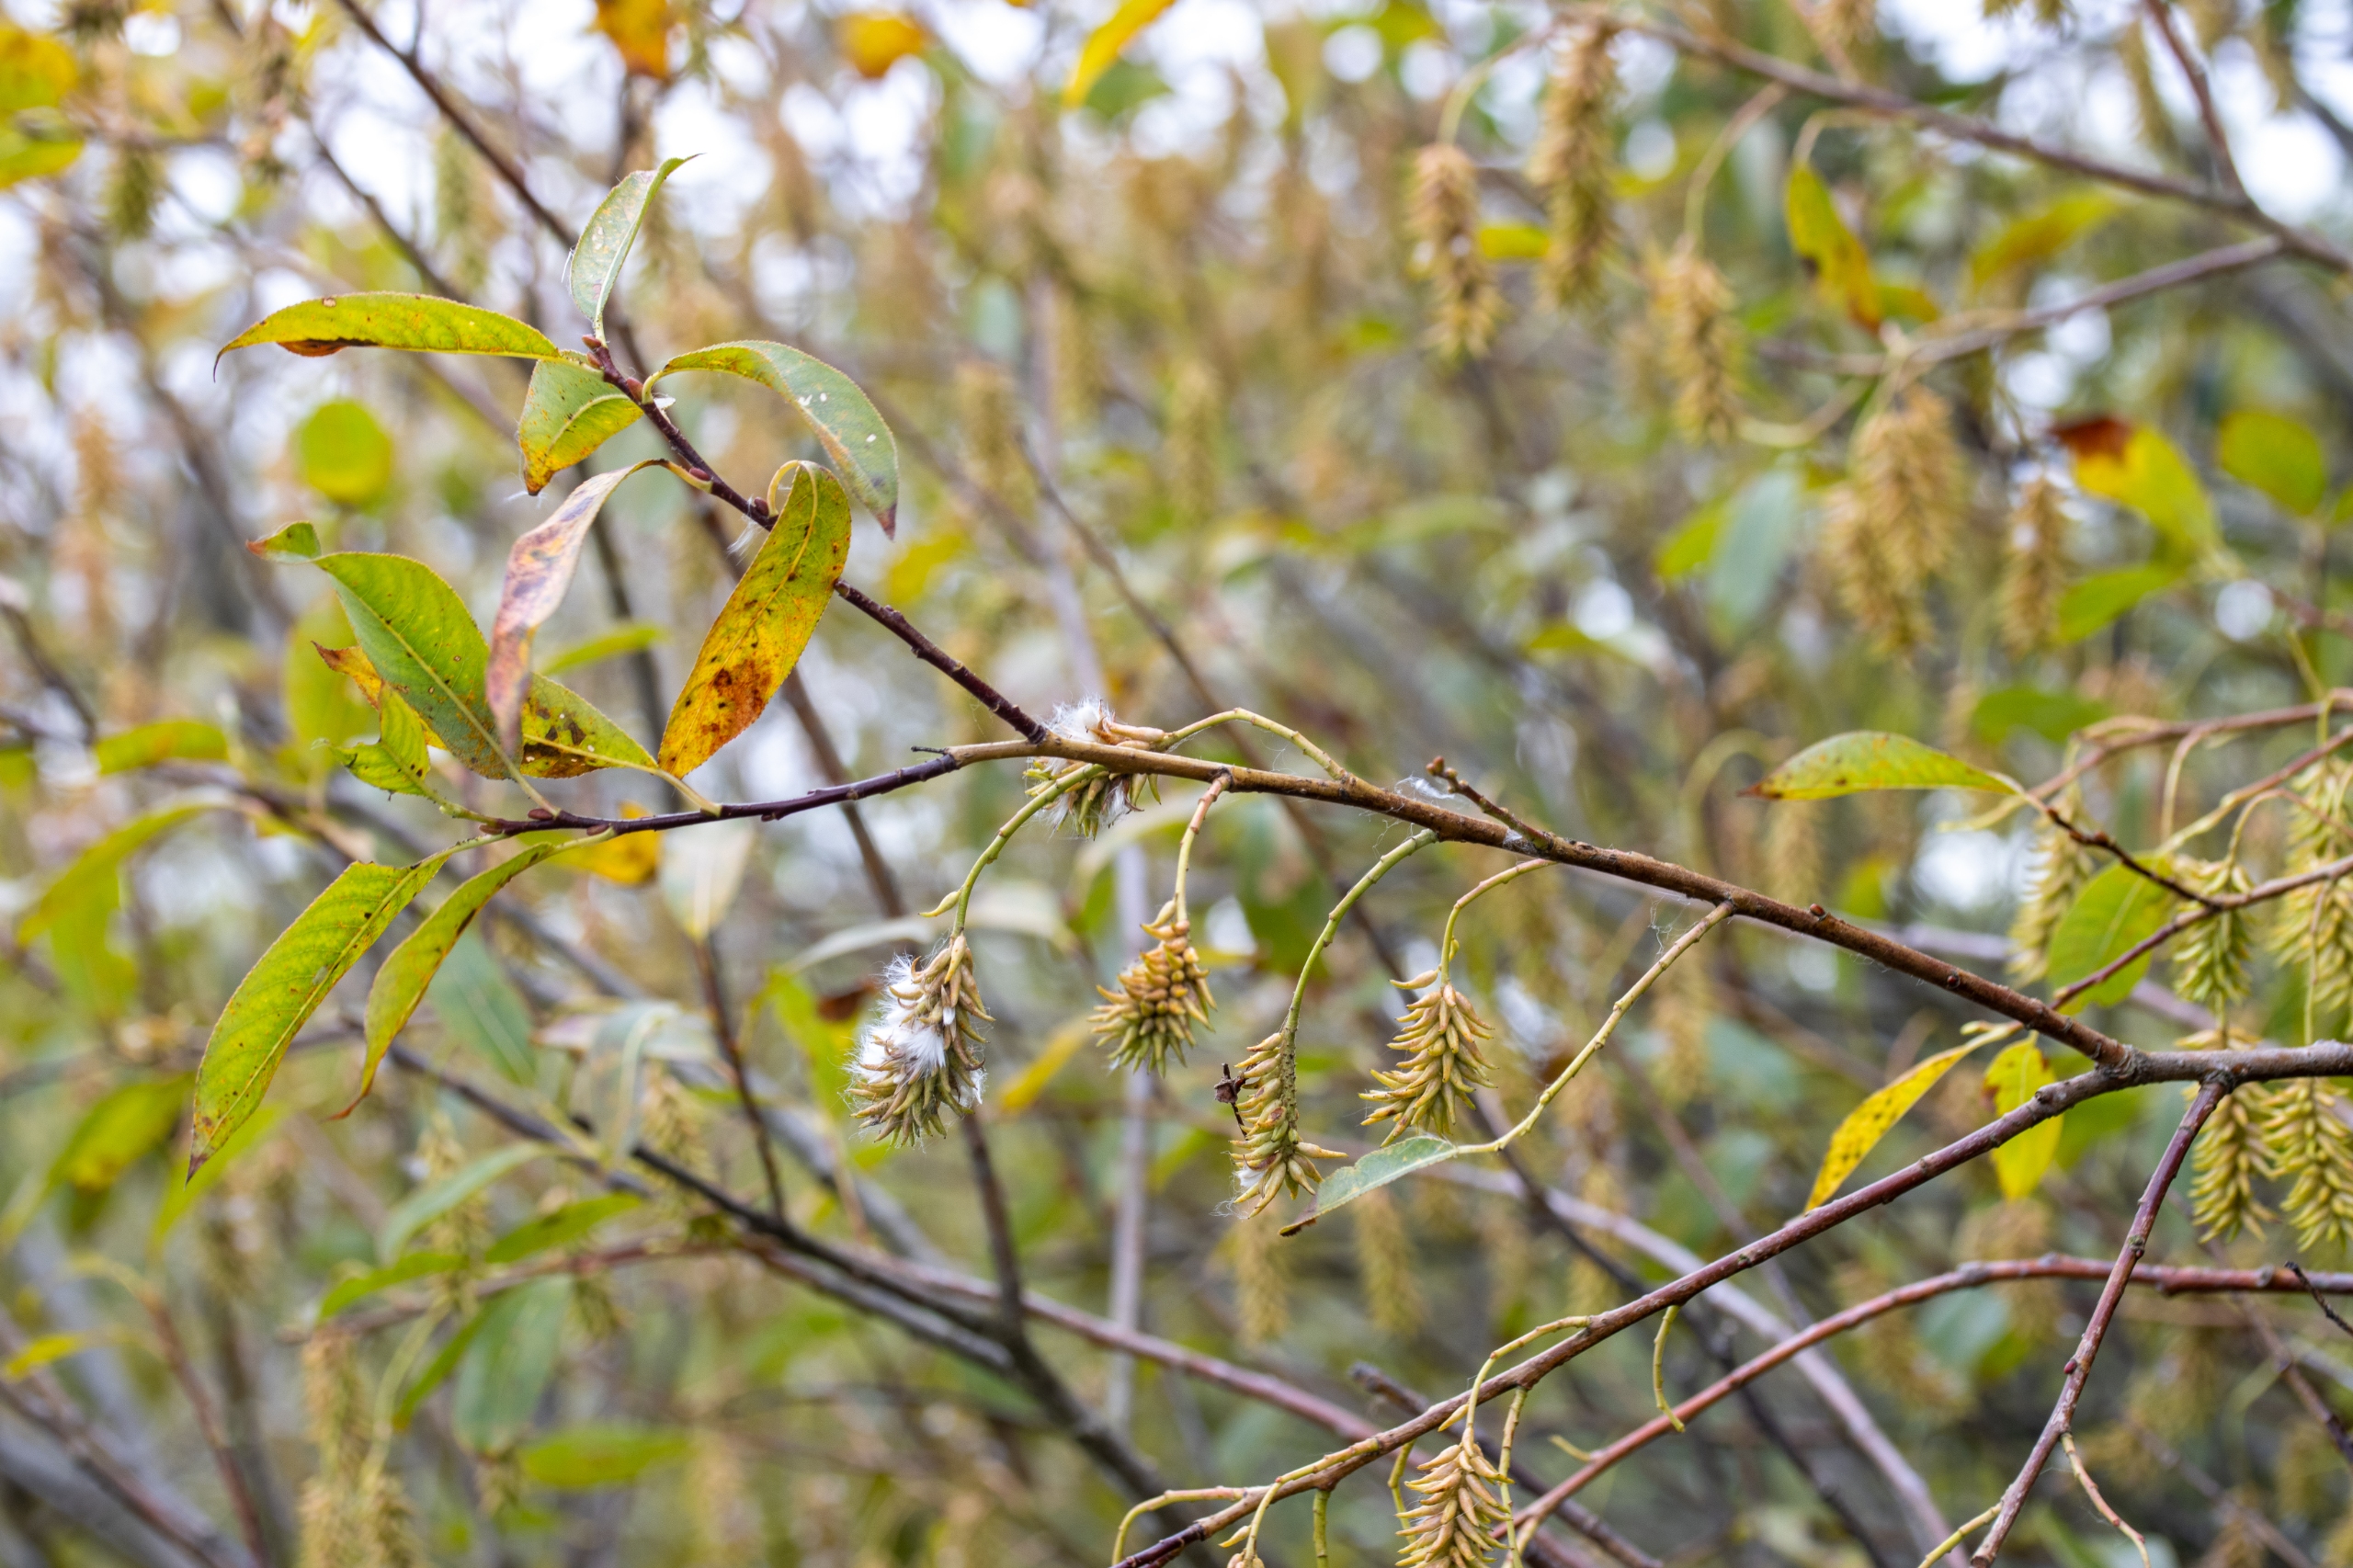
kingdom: Plantae
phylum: Tracheophyta
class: Magnoliopsida
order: Malpighiales
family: Salicaceae
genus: Salix
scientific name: Salix pentandra
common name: Femhannet pil
